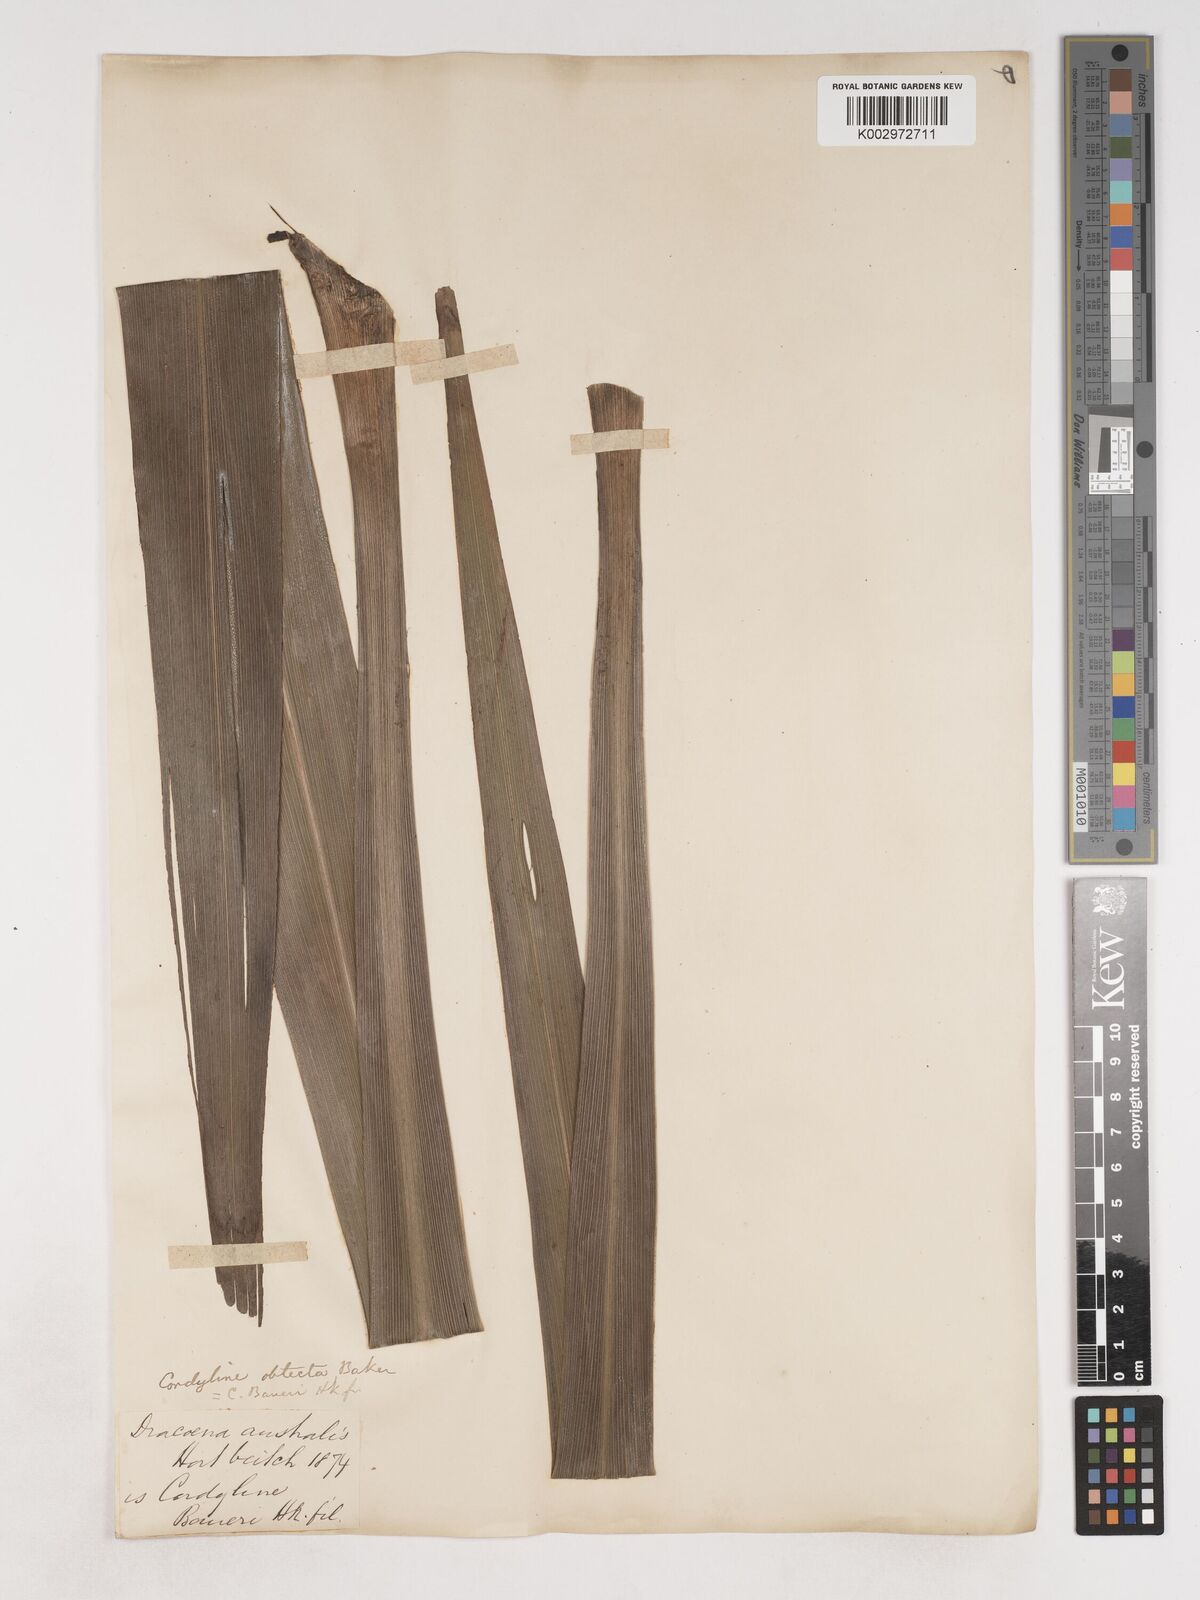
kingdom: Plantae
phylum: Tracheophyta
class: Liliopsida
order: Asparagales
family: Asparagaceae
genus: Cordyline
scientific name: Cordyline obtecta
